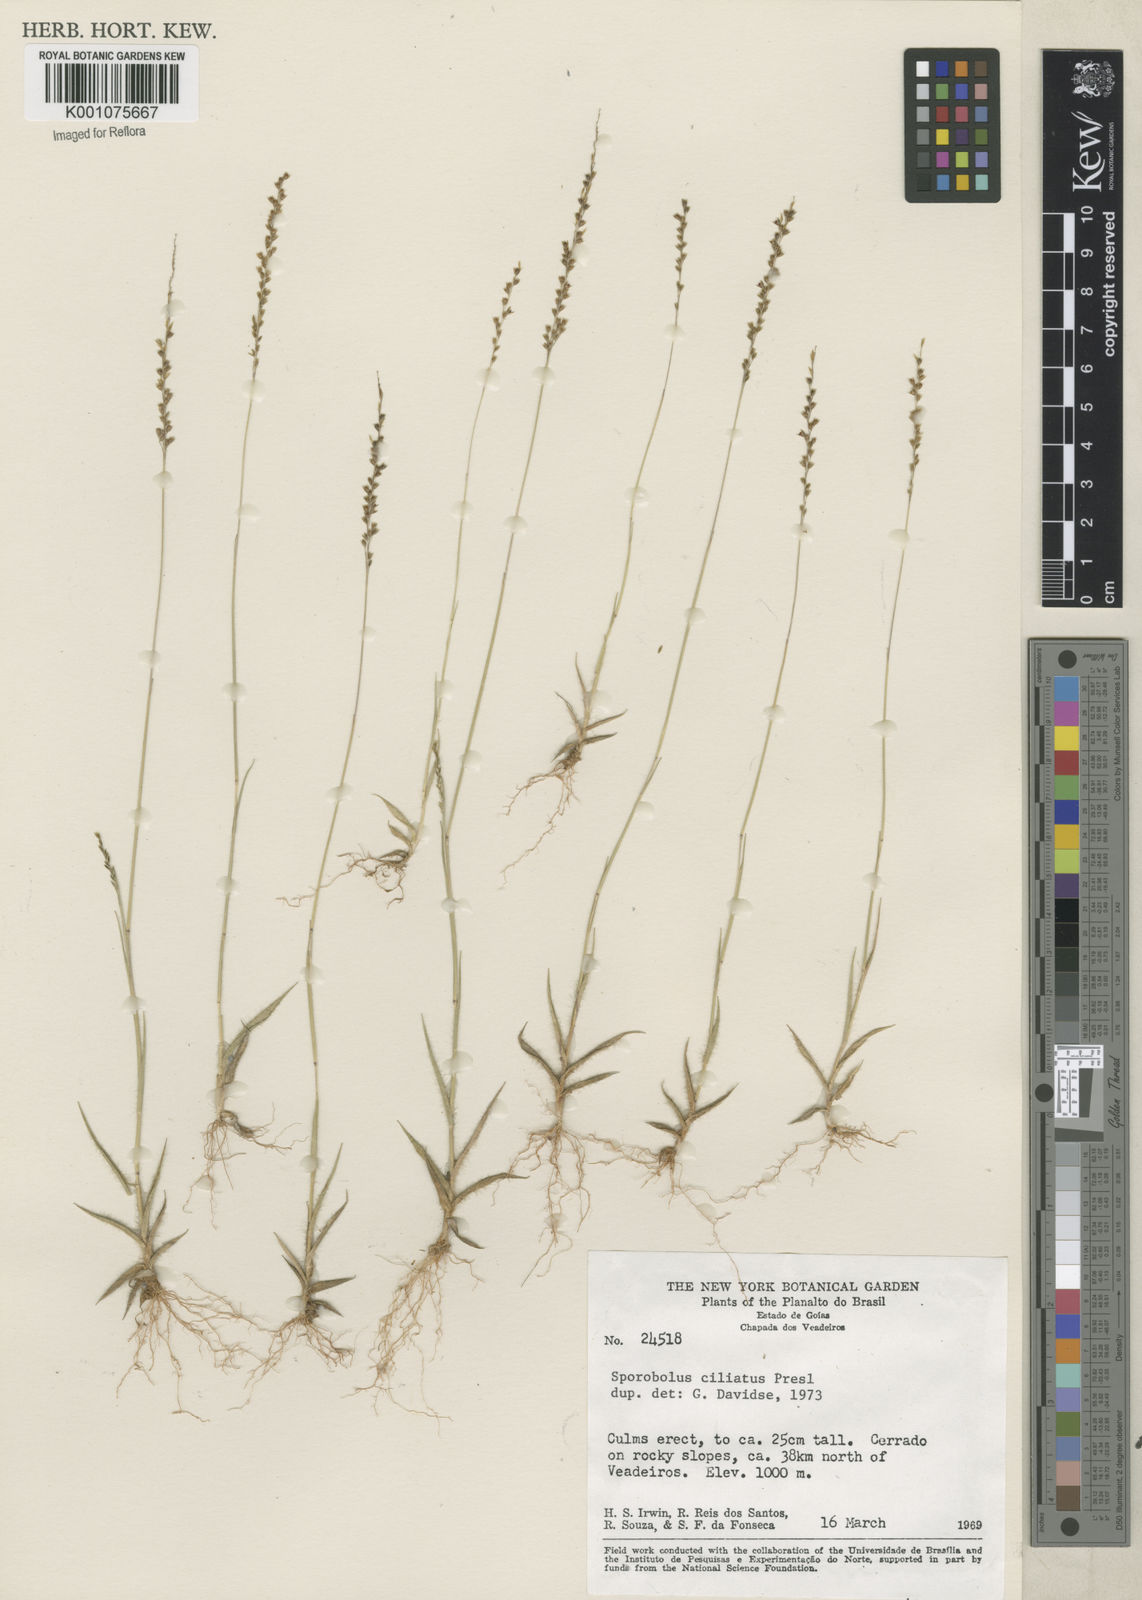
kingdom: Plantae
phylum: Tracheophyta
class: Liliopsida
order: Poales
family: Poaceae
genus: Sporobolus
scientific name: Sporobolus pilifer
